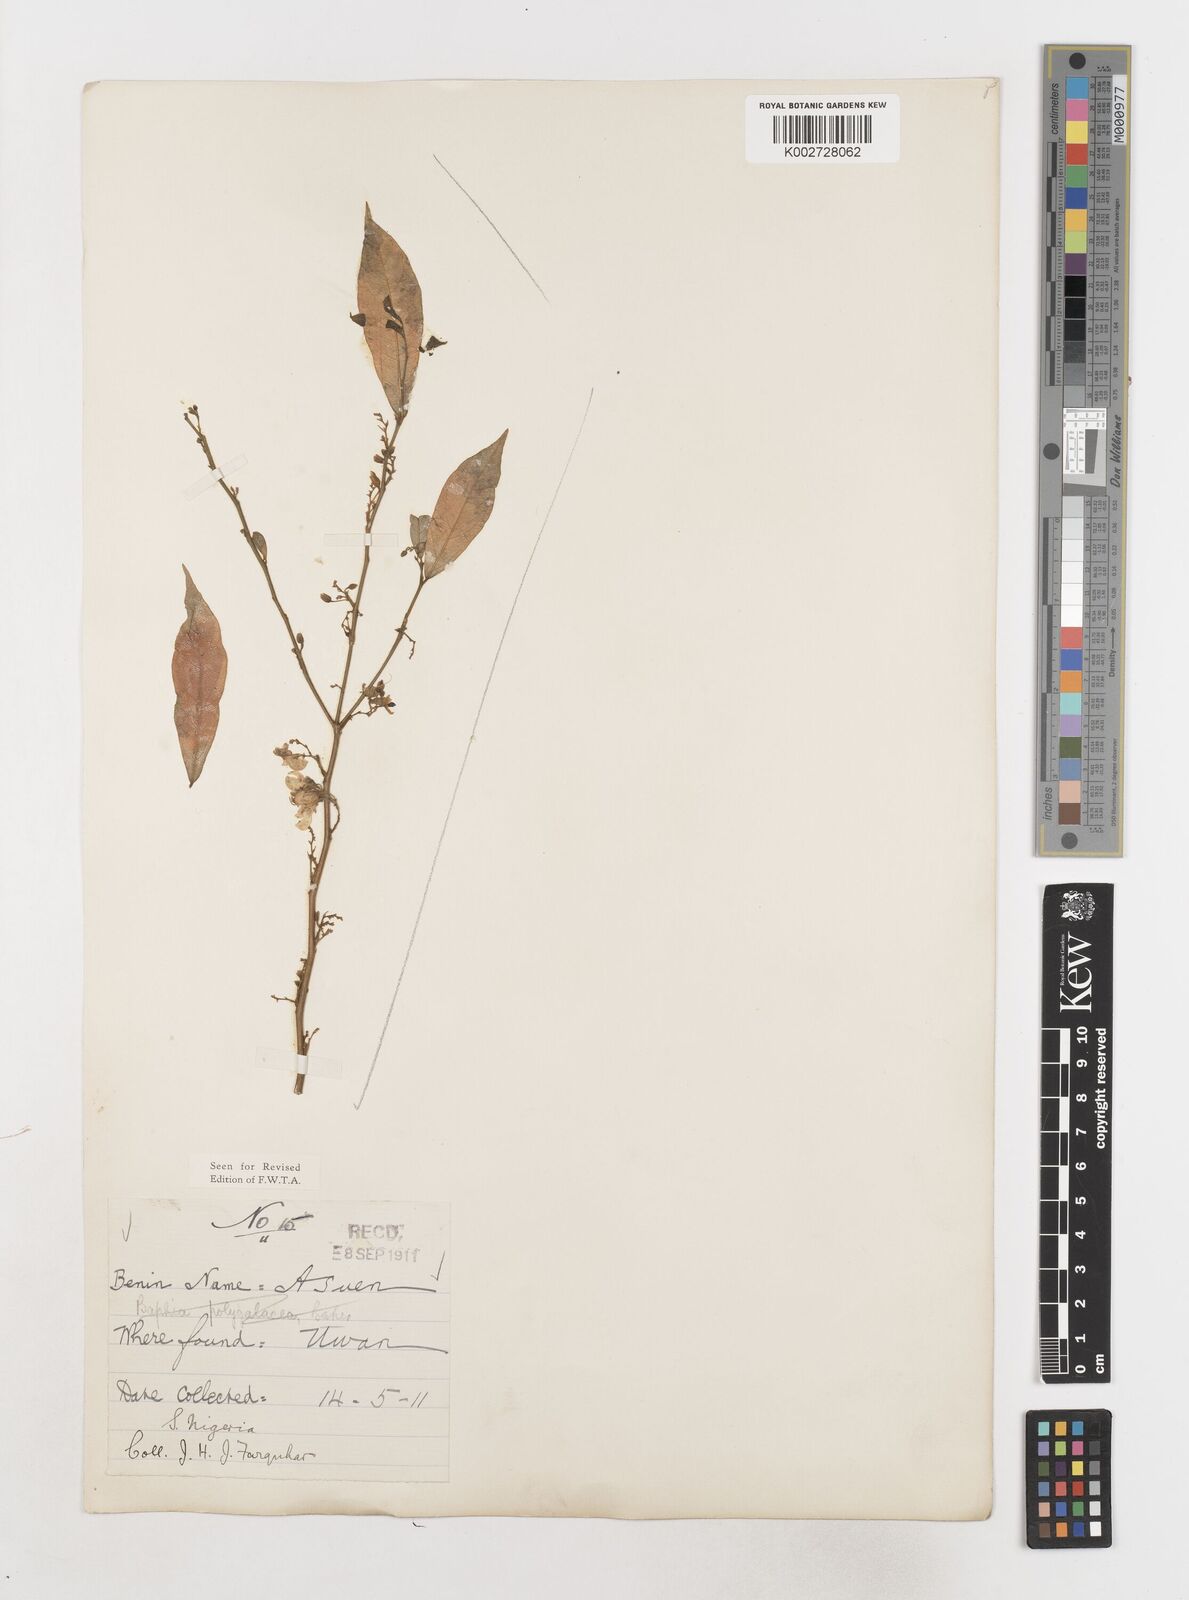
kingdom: Plantae
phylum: Tracheophyta
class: Magnoliopsida
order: Fabales
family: Polygalaceae
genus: Carpolobia
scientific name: Carpolobia
